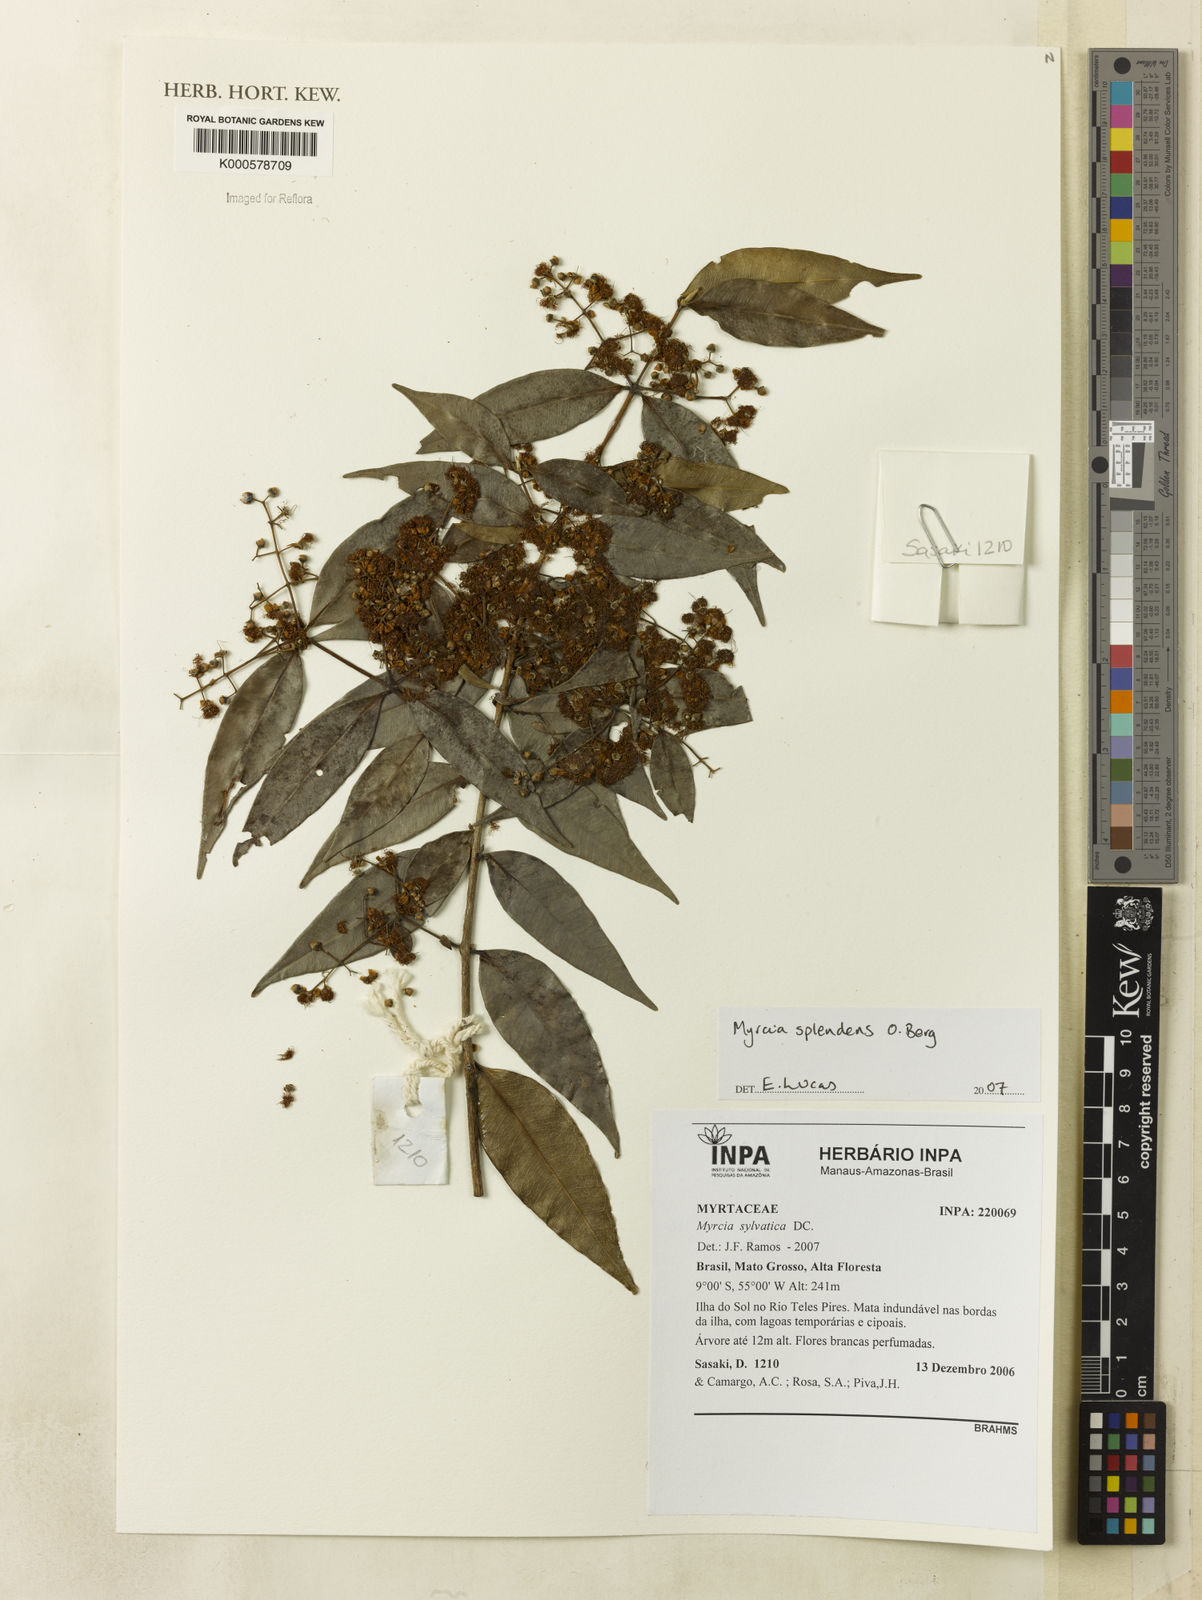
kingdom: Plantae
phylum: Tracheophyta
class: Magnoliopsida
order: Myrtales
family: Myrtaceae
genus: Myrcia
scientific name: Myrcia splendens
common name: Surinam cherry
